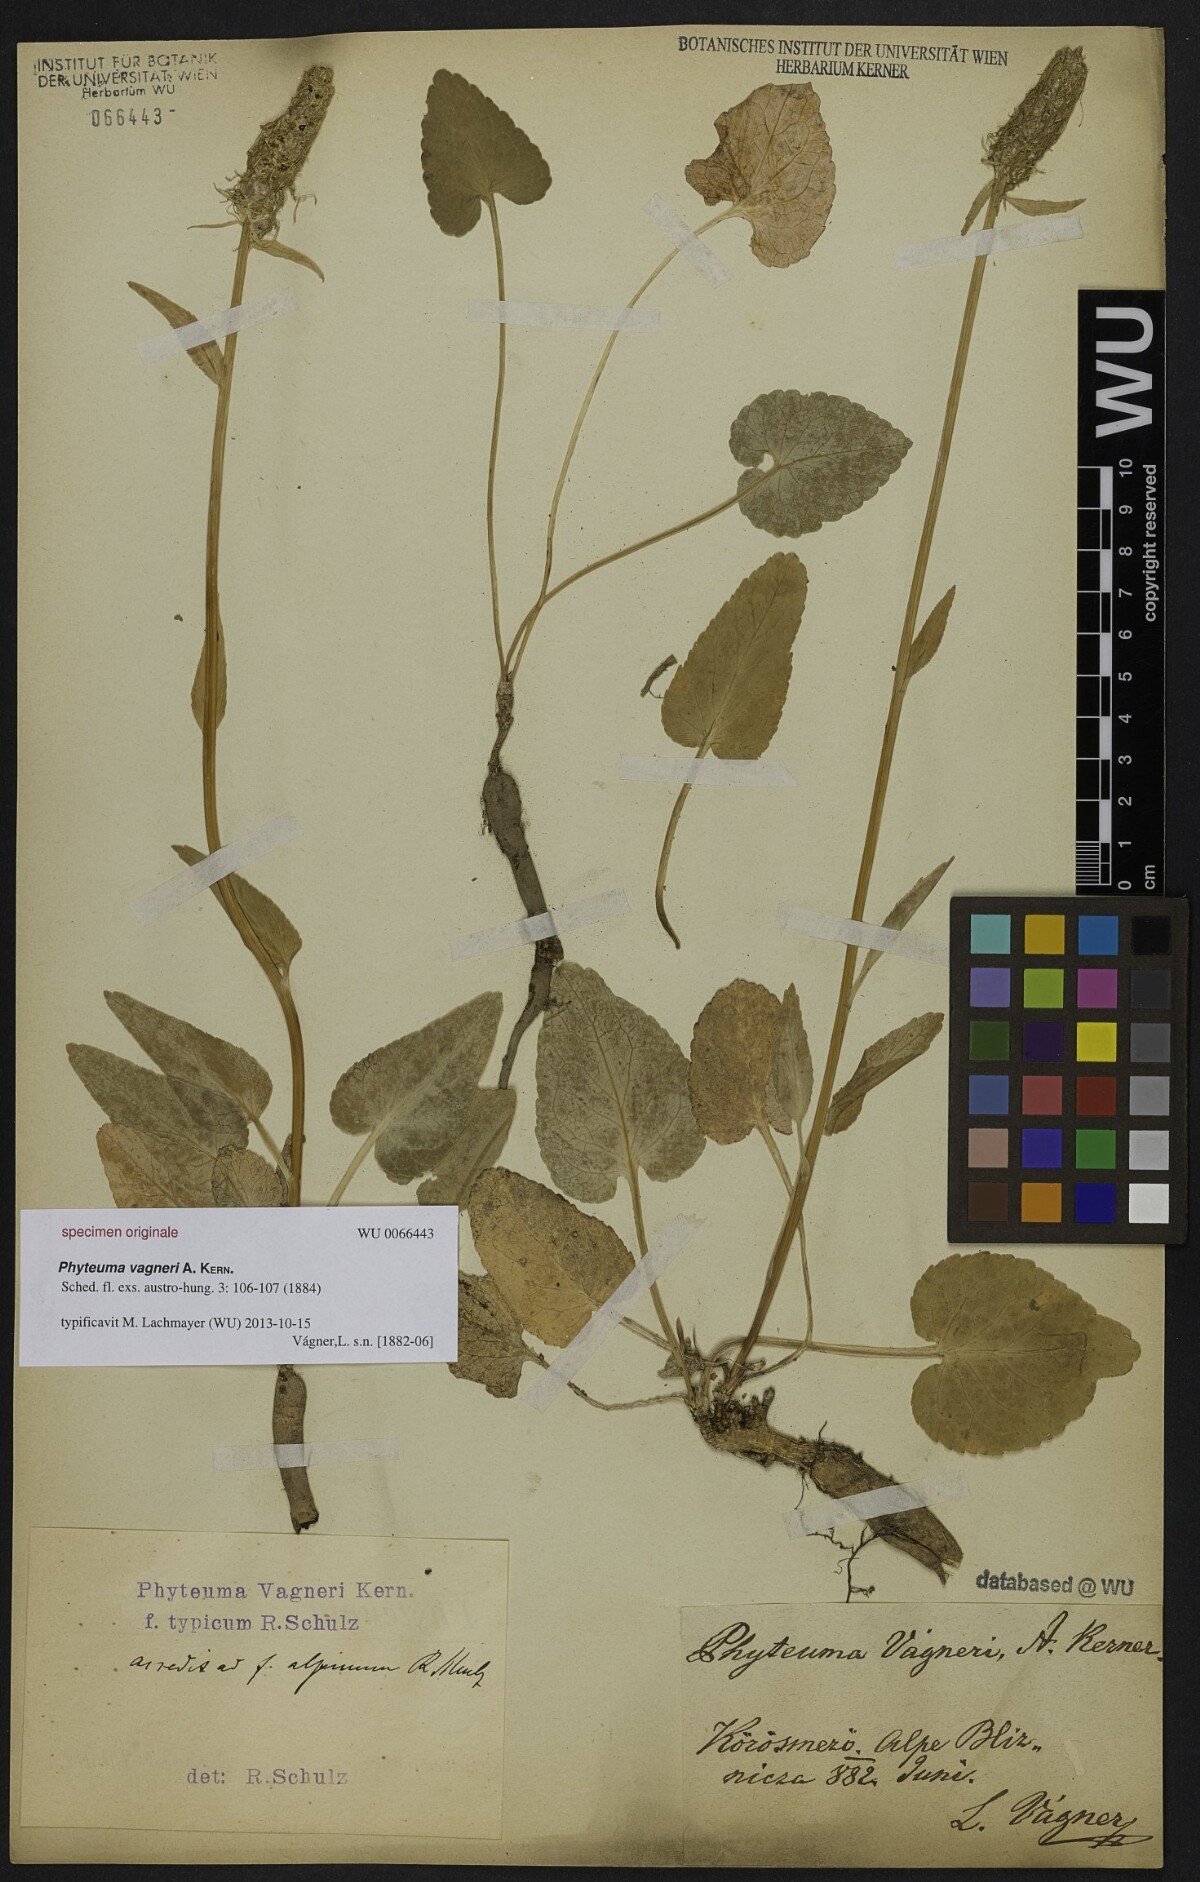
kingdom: Plantae
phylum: Tracheophyta
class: Magnoliopsida
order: Asterales
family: Campanulaceae
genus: Phyteuma
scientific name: Phyteuma vagneri
